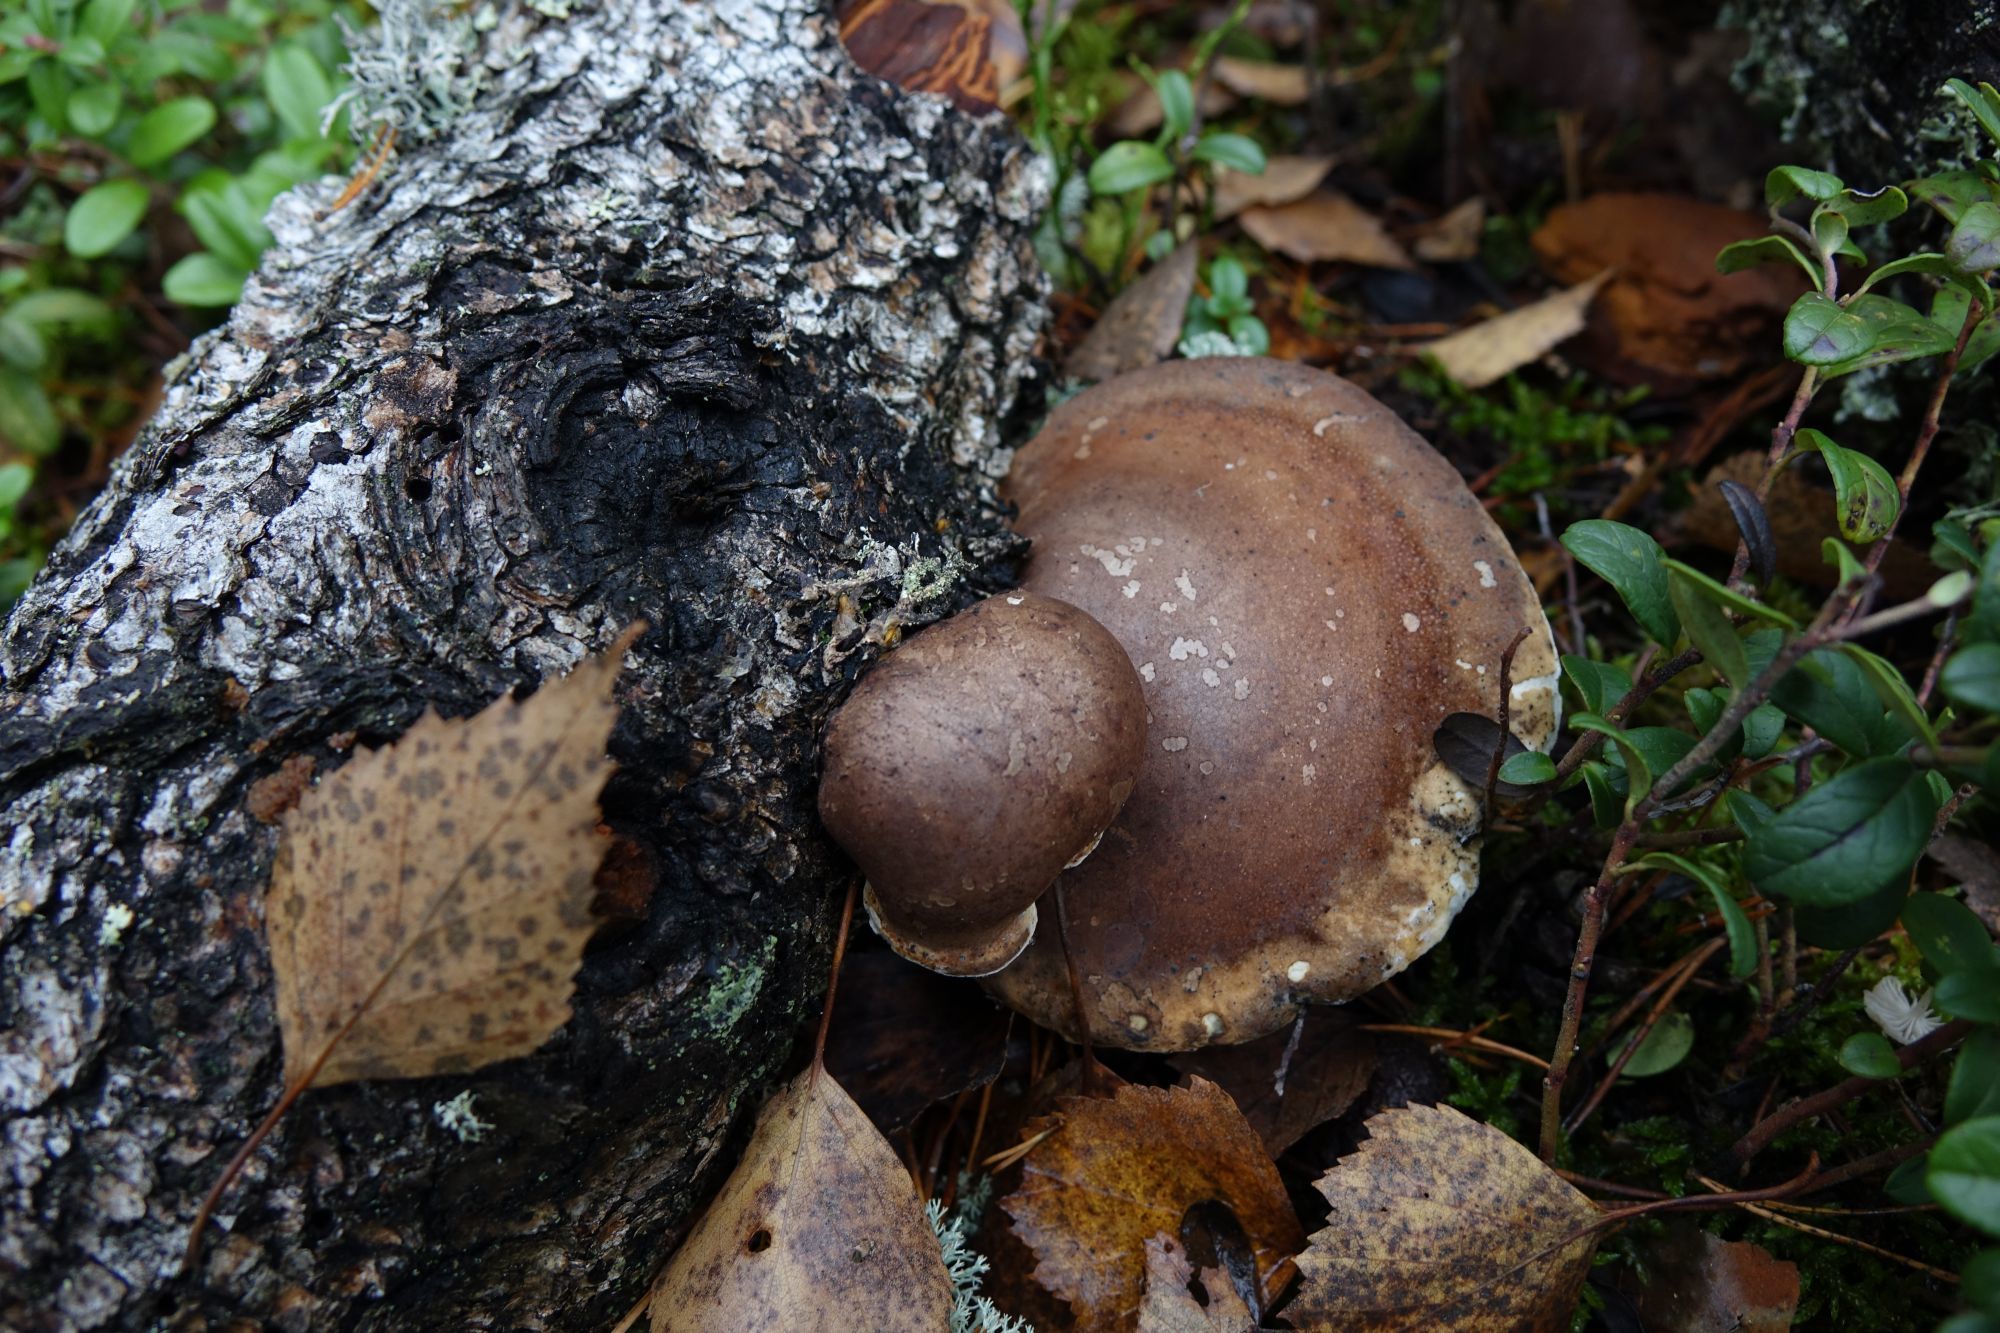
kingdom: Fungi
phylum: Basidiomycota
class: Agaricomycetes
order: Polyporales
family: Fomitopsidaceae
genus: Fomitopsis
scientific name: Fomitopsis betulina
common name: Birch polypore
